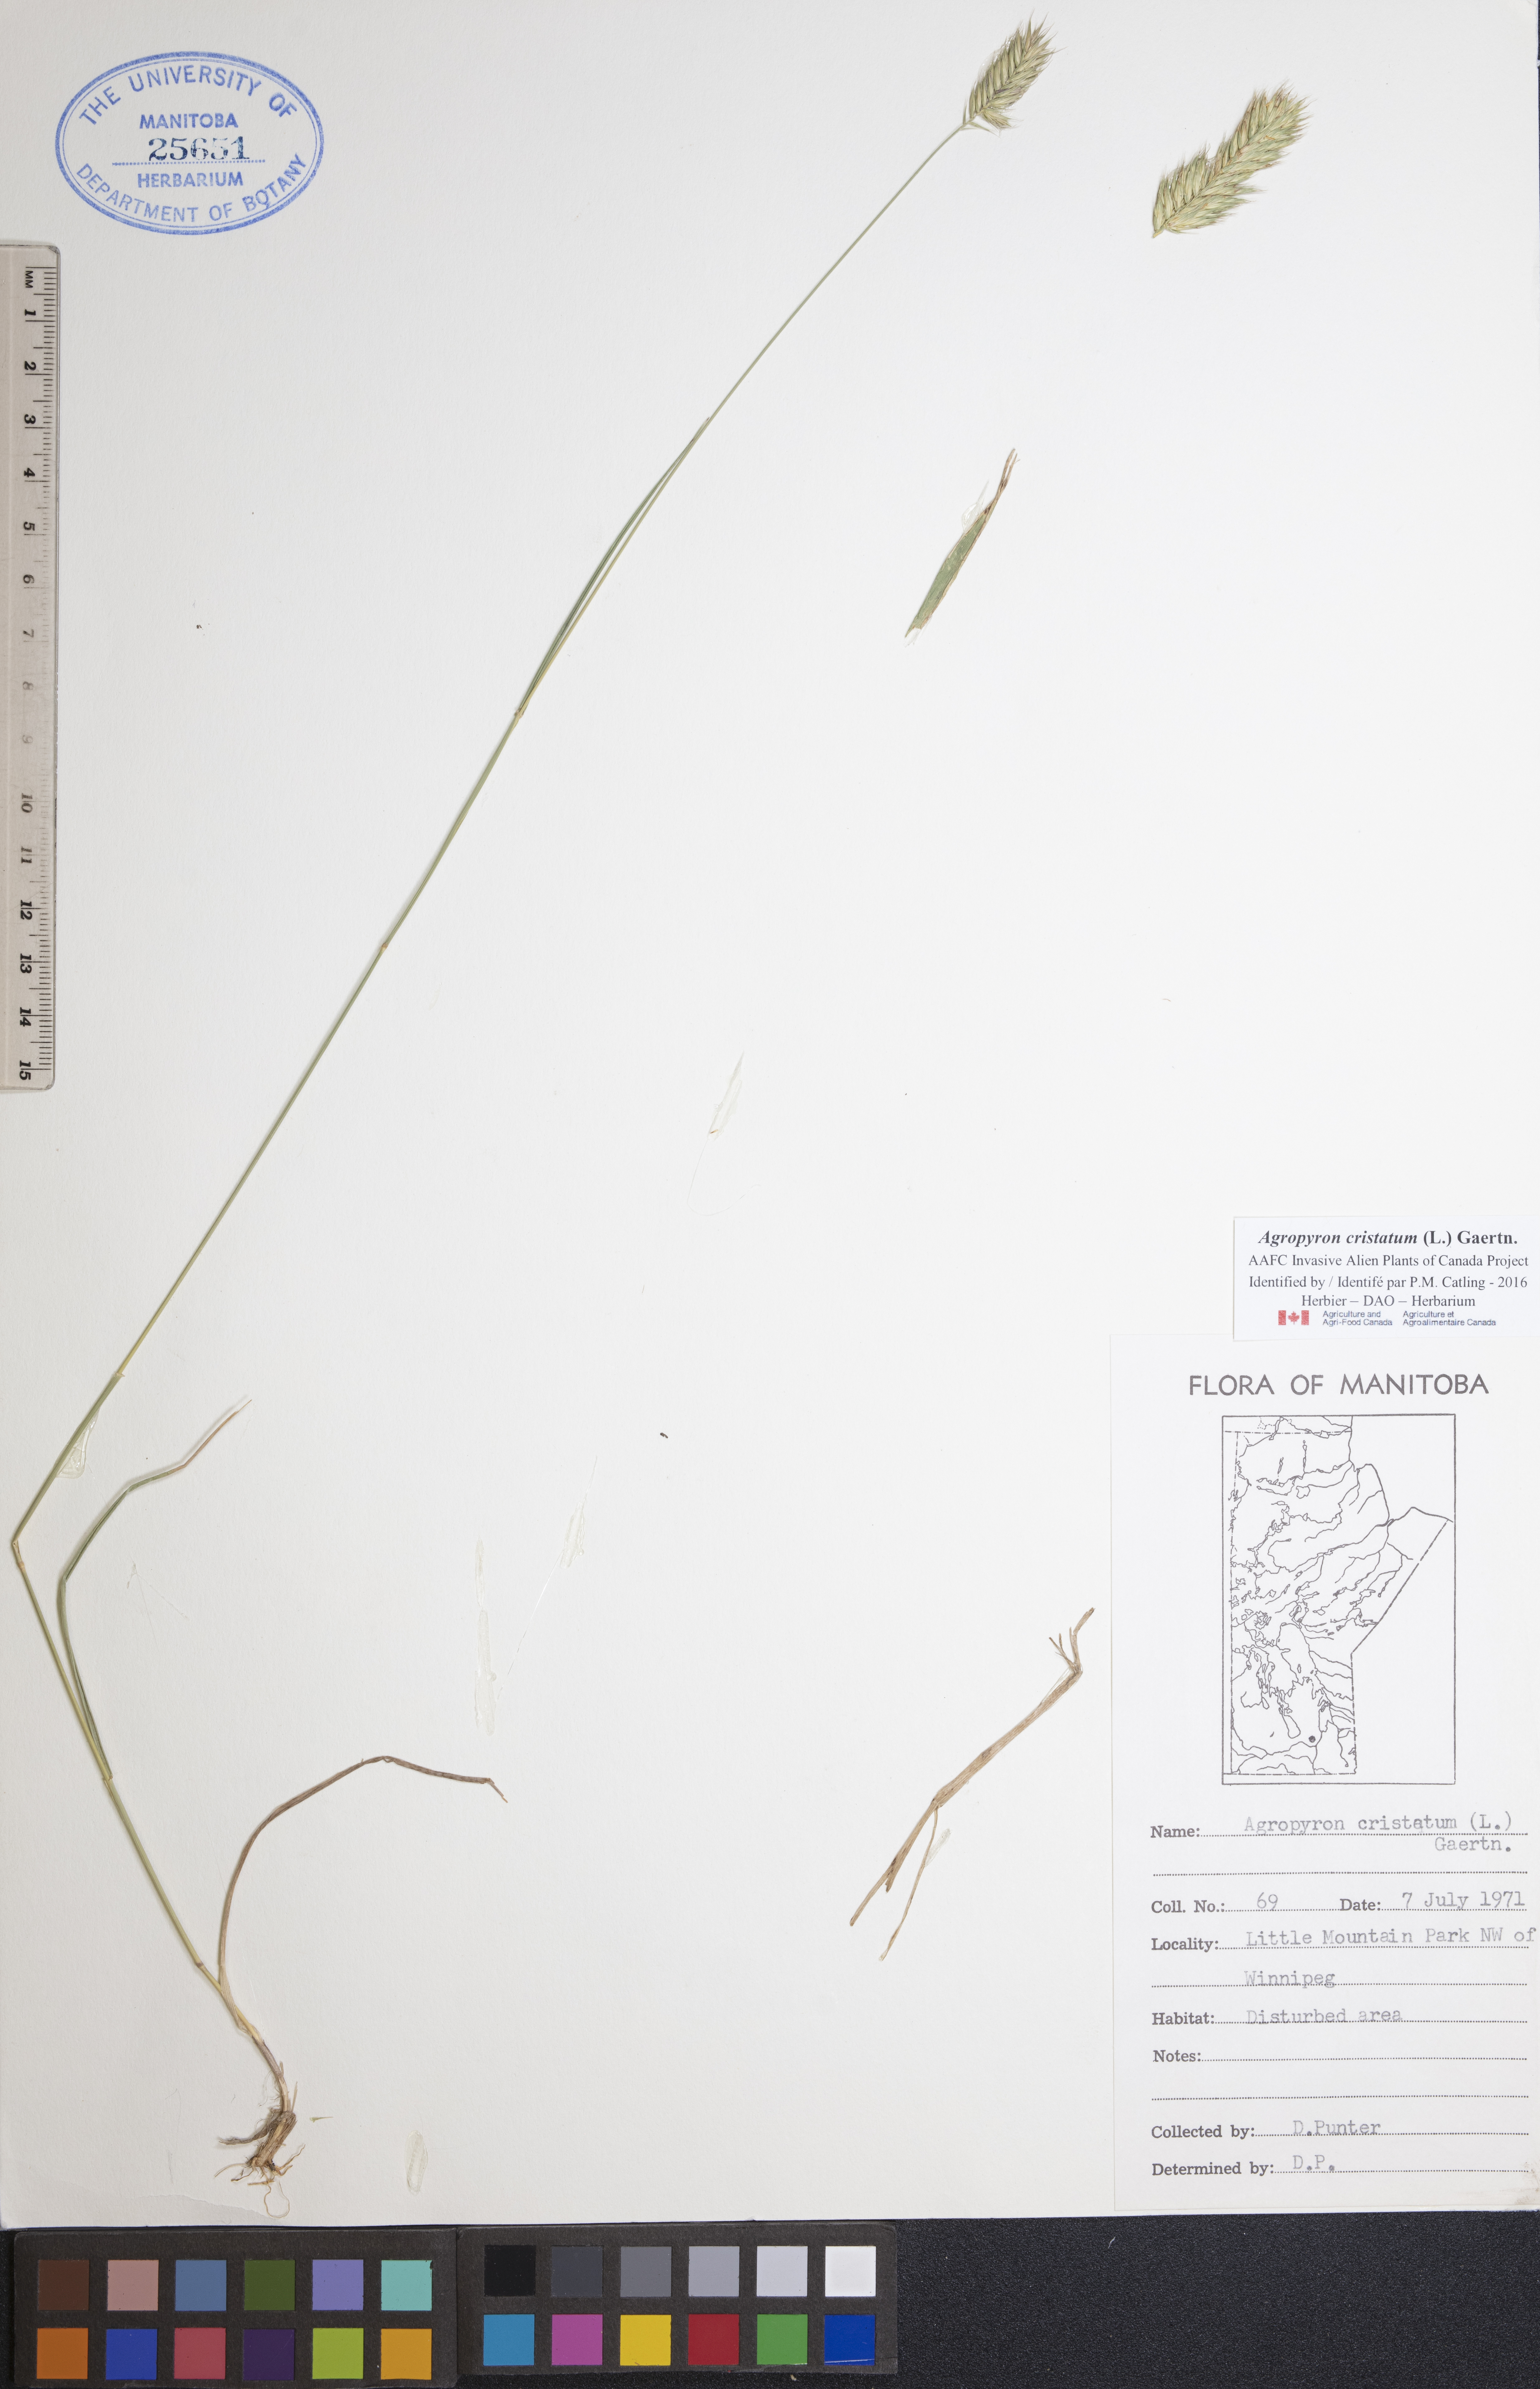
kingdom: Plantae
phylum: Tracheophyta
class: Liliopsida
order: Poales
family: Poaceae
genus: Agropyron
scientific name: Agropyron cristatum
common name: Crested wheatgrass
